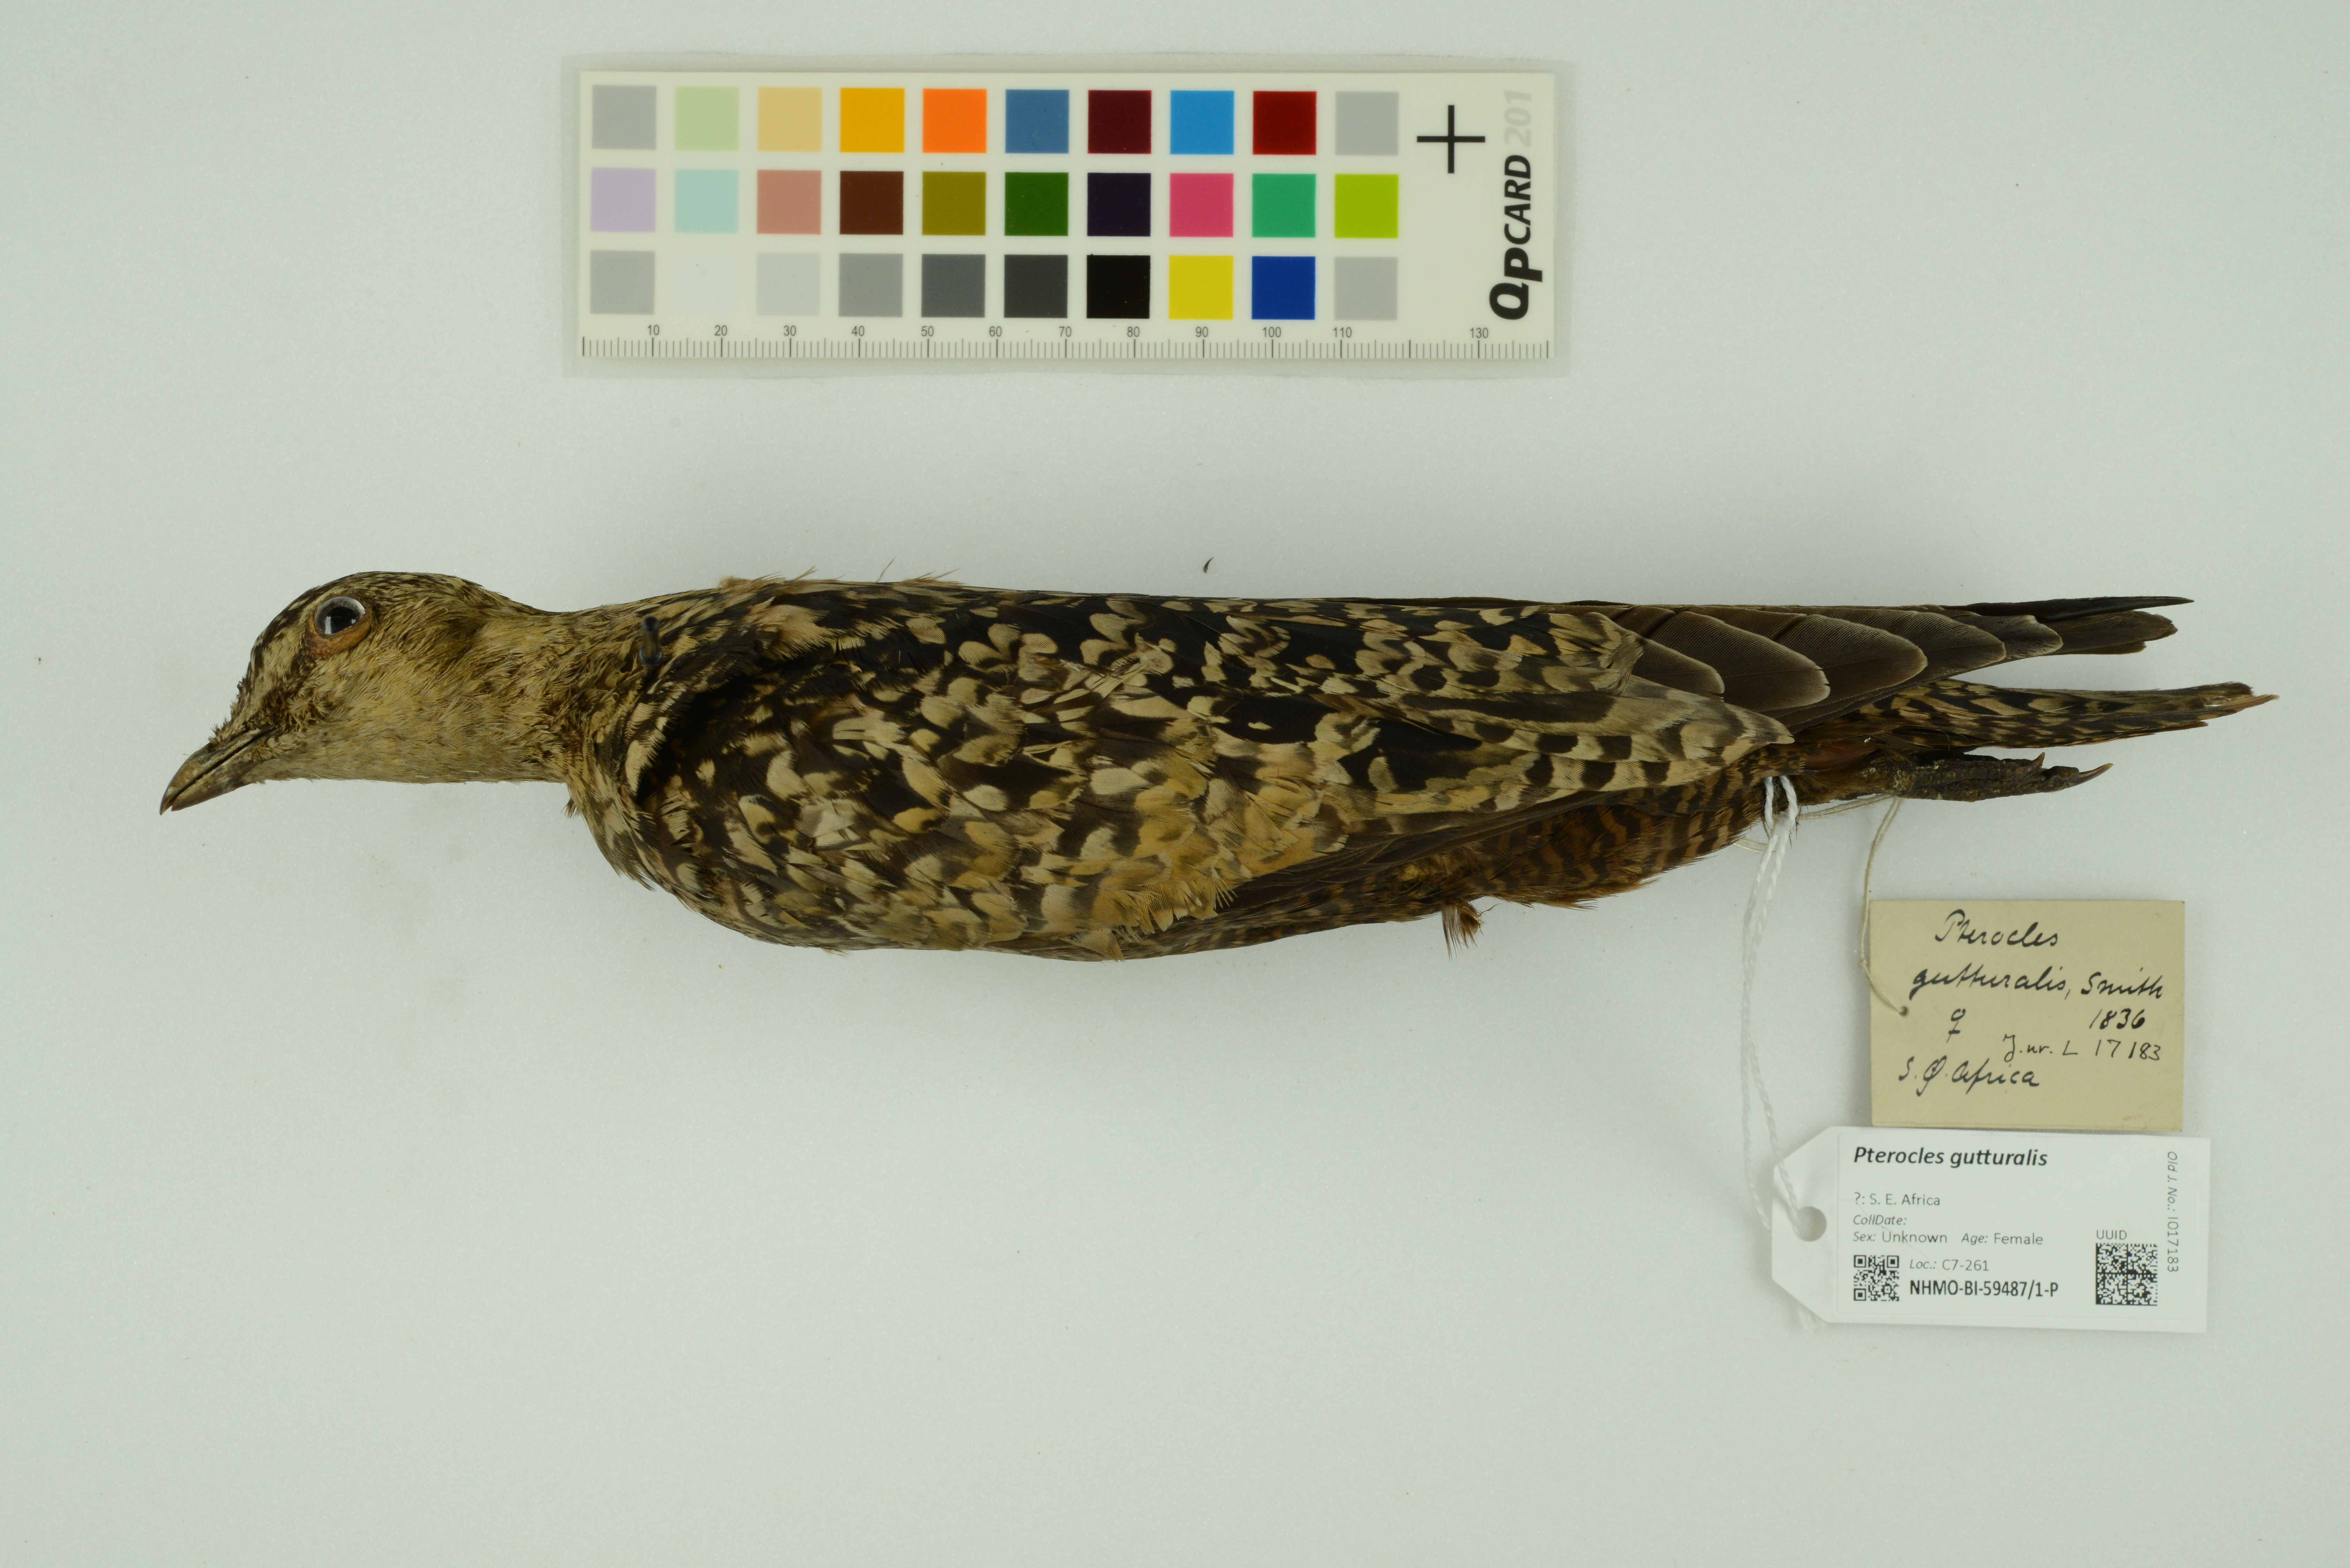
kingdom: Animalia
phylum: Chordata
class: Aves
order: Pteroclidiformes
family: Pteroclididae
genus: Pterocles
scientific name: Pterocles gutturalis
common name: Yellow-throated sandgrouse
